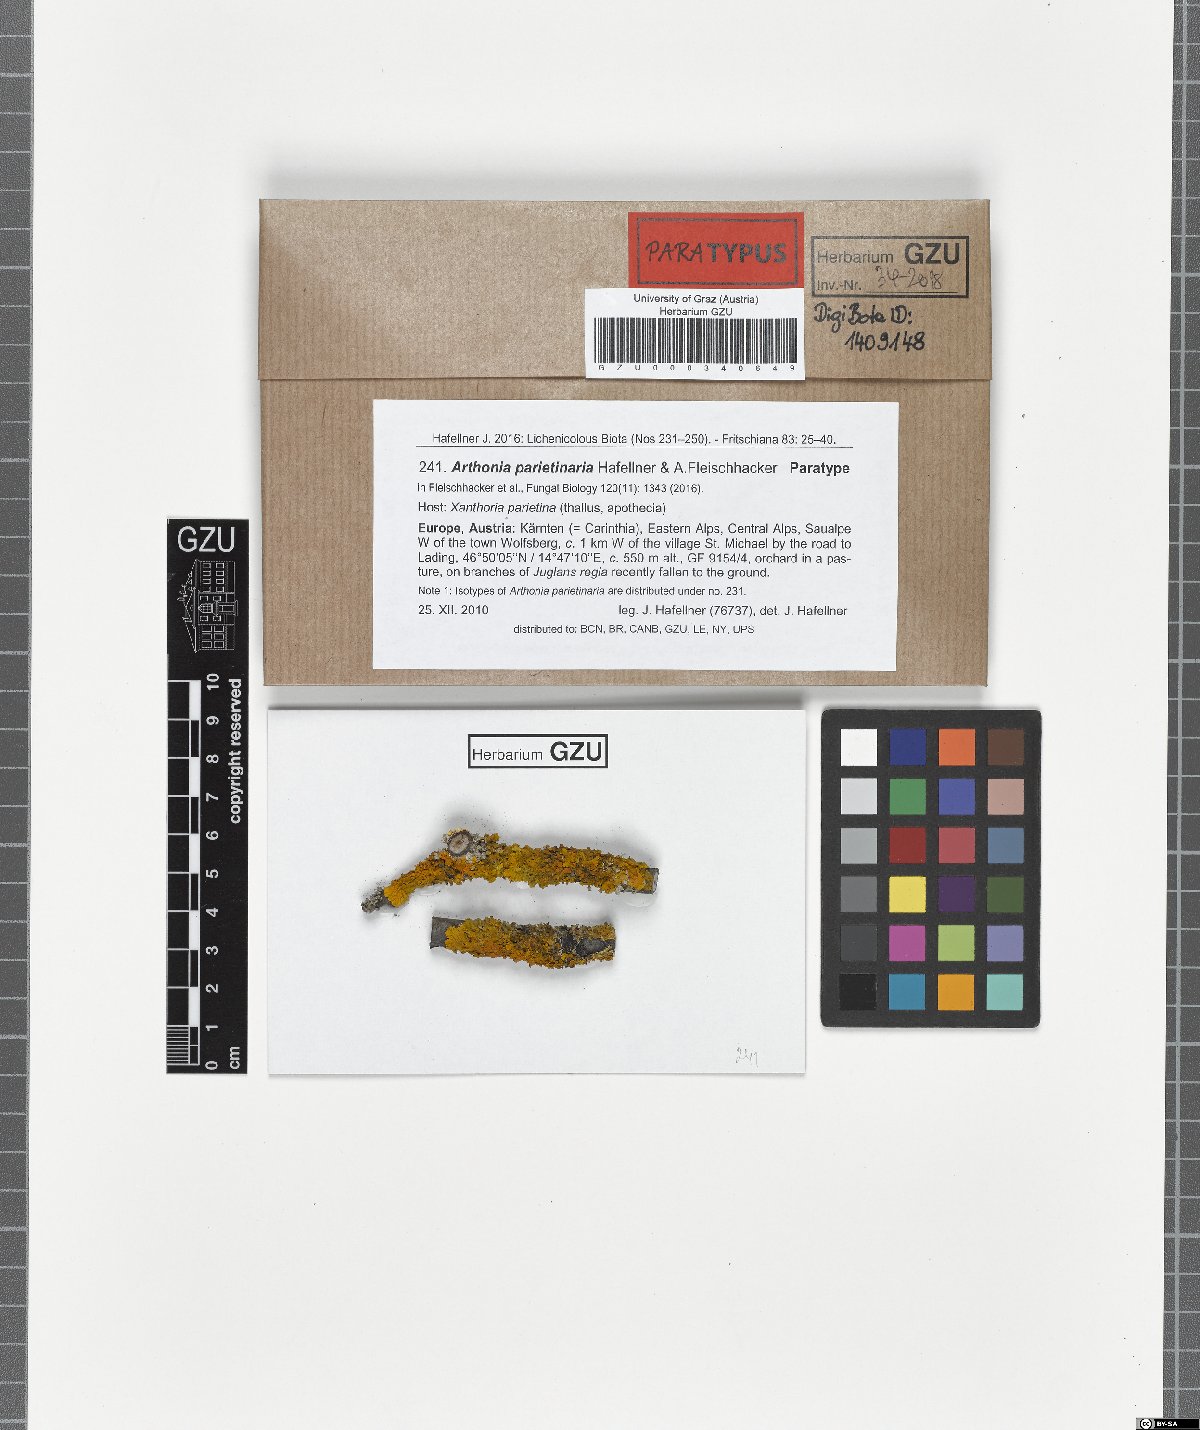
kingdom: Fungi
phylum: Ascomycota
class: Arthoniomycetes
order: Arthoniales
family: Arthoniaceae
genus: Bryostigma
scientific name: Bryostigma parietinarium
